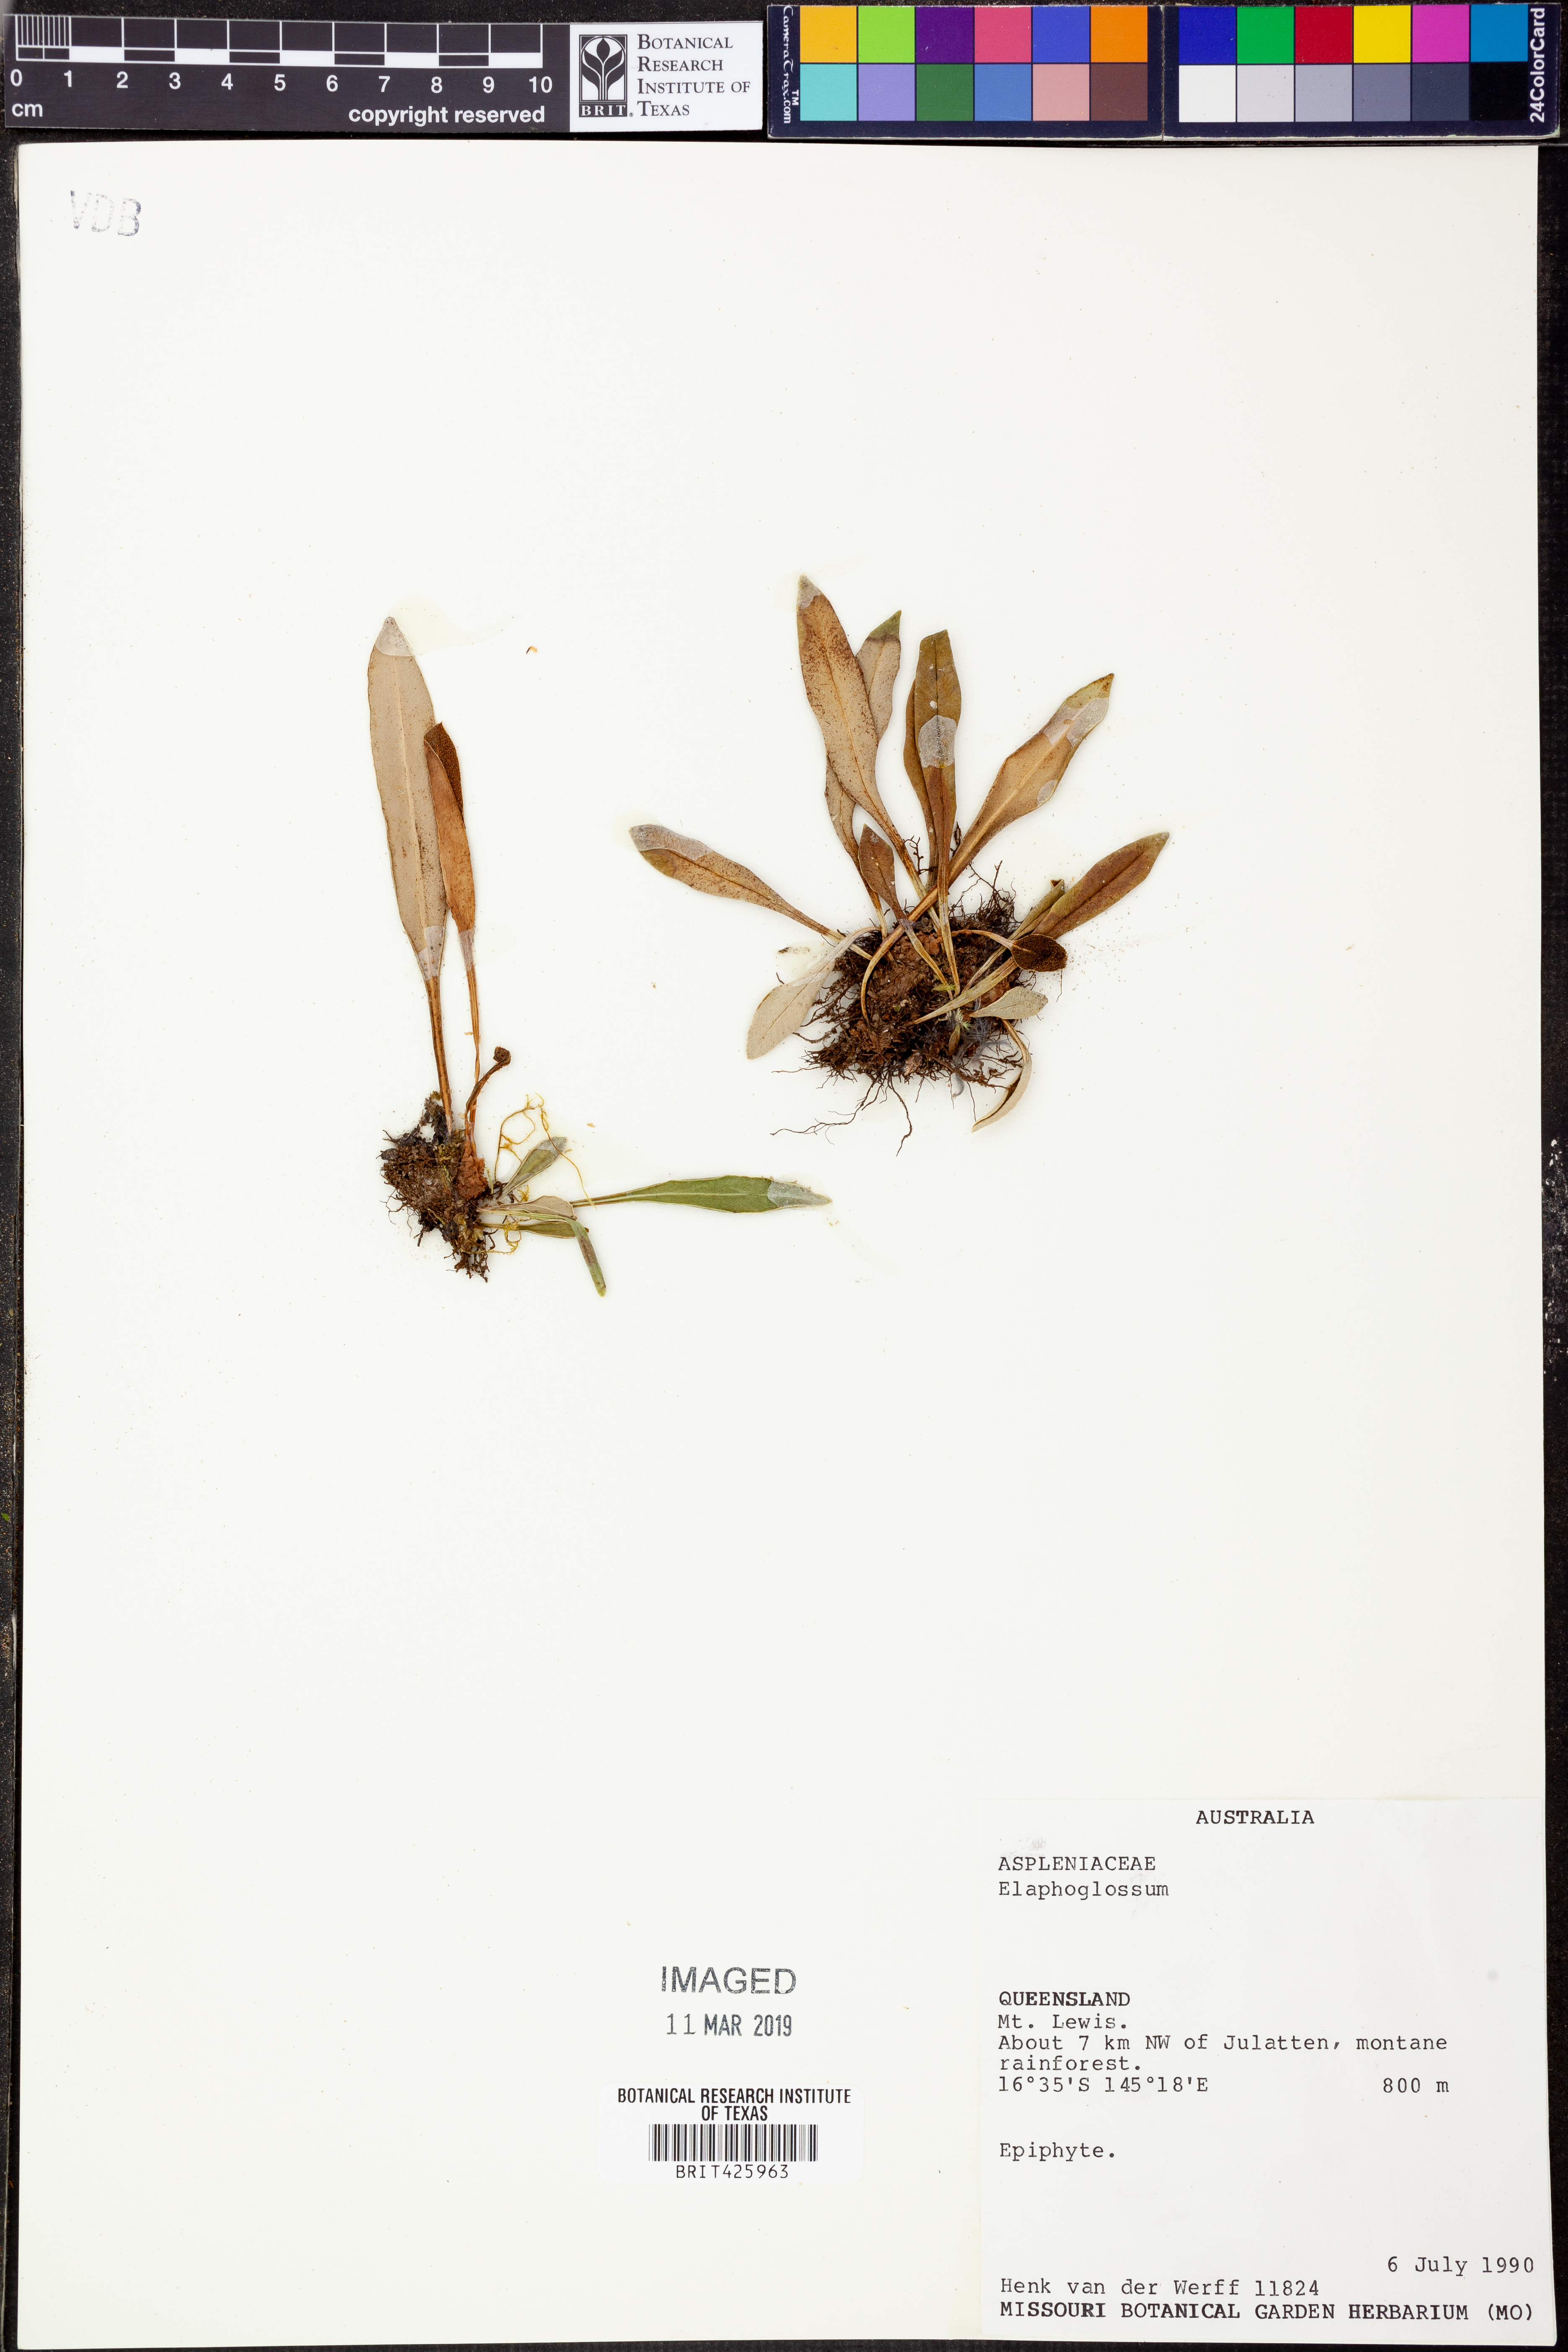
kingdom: Plantae
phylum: Tracheophyta
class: Polypodiopsida
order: Polypodiales
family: Dryopteridaceae
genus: Elaphoglossum
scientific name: Elaphoglossum
